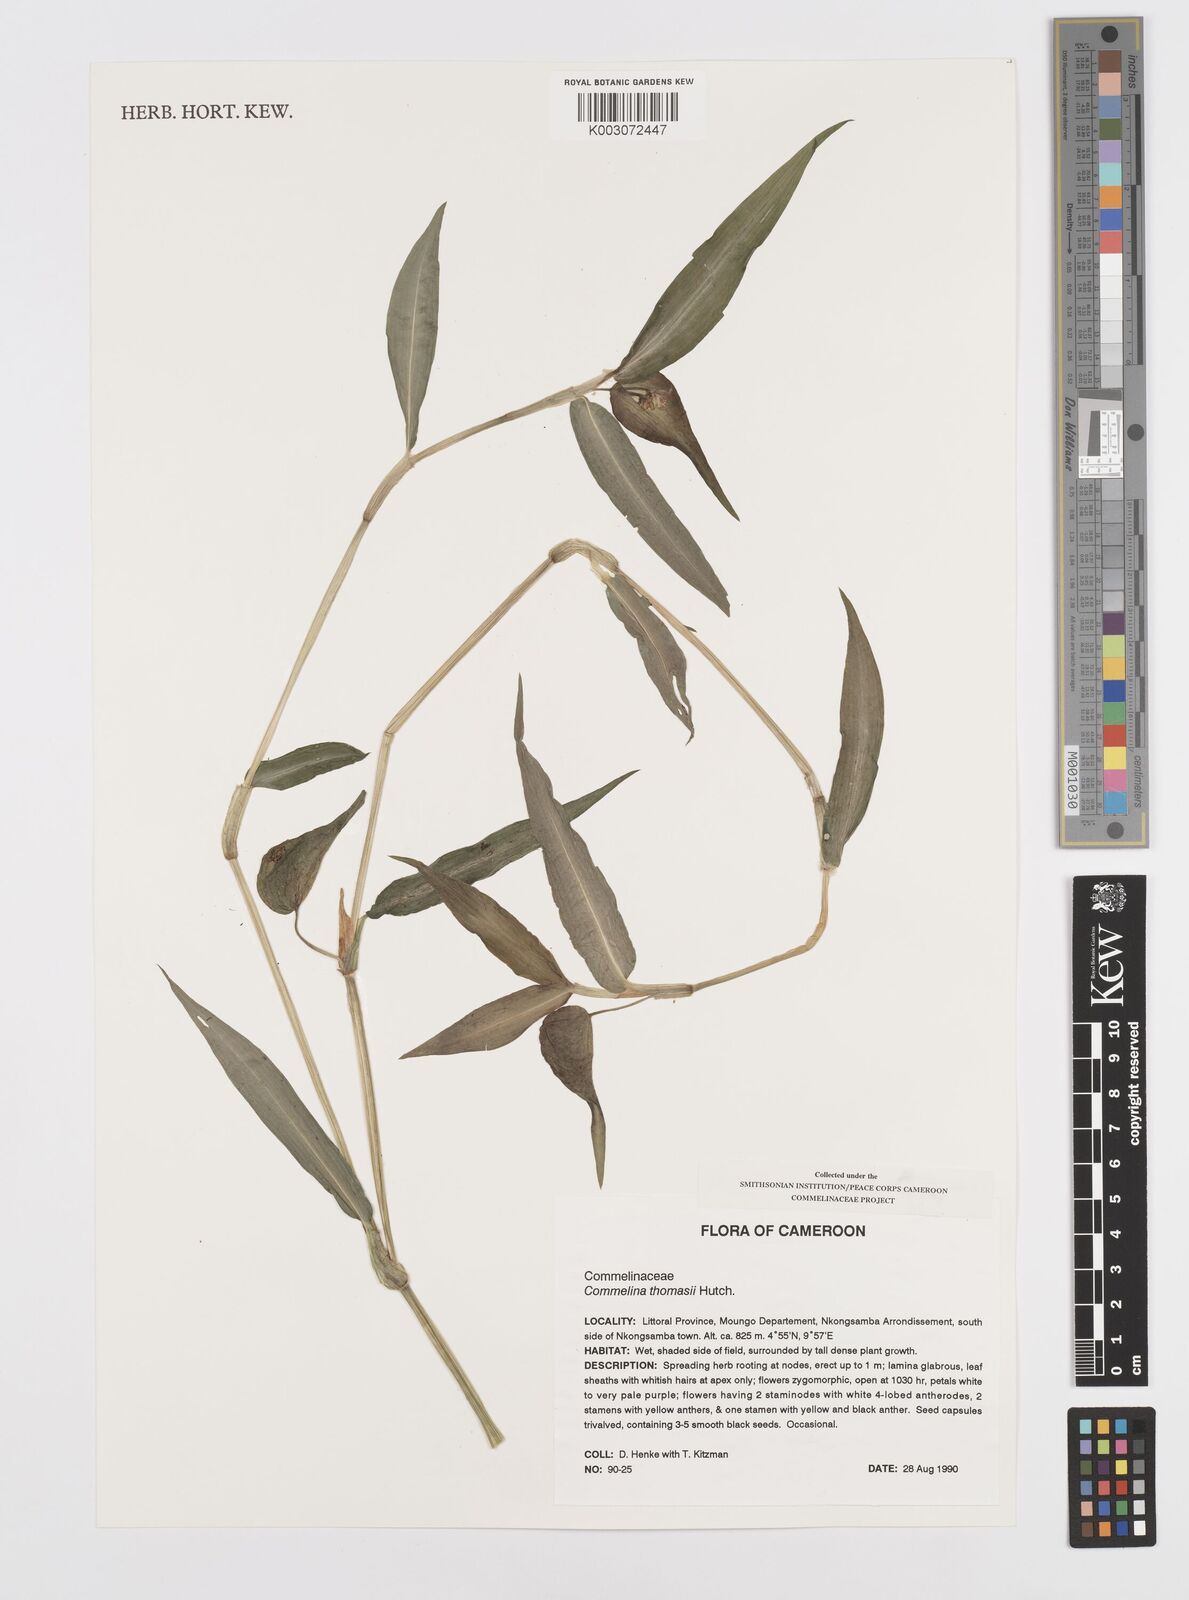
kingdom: Plantae
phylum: Tracheophyta
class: Liliopsida
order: Commelinales
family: Commelinaceae
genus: Commelina
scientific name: Commelina acutispatha
